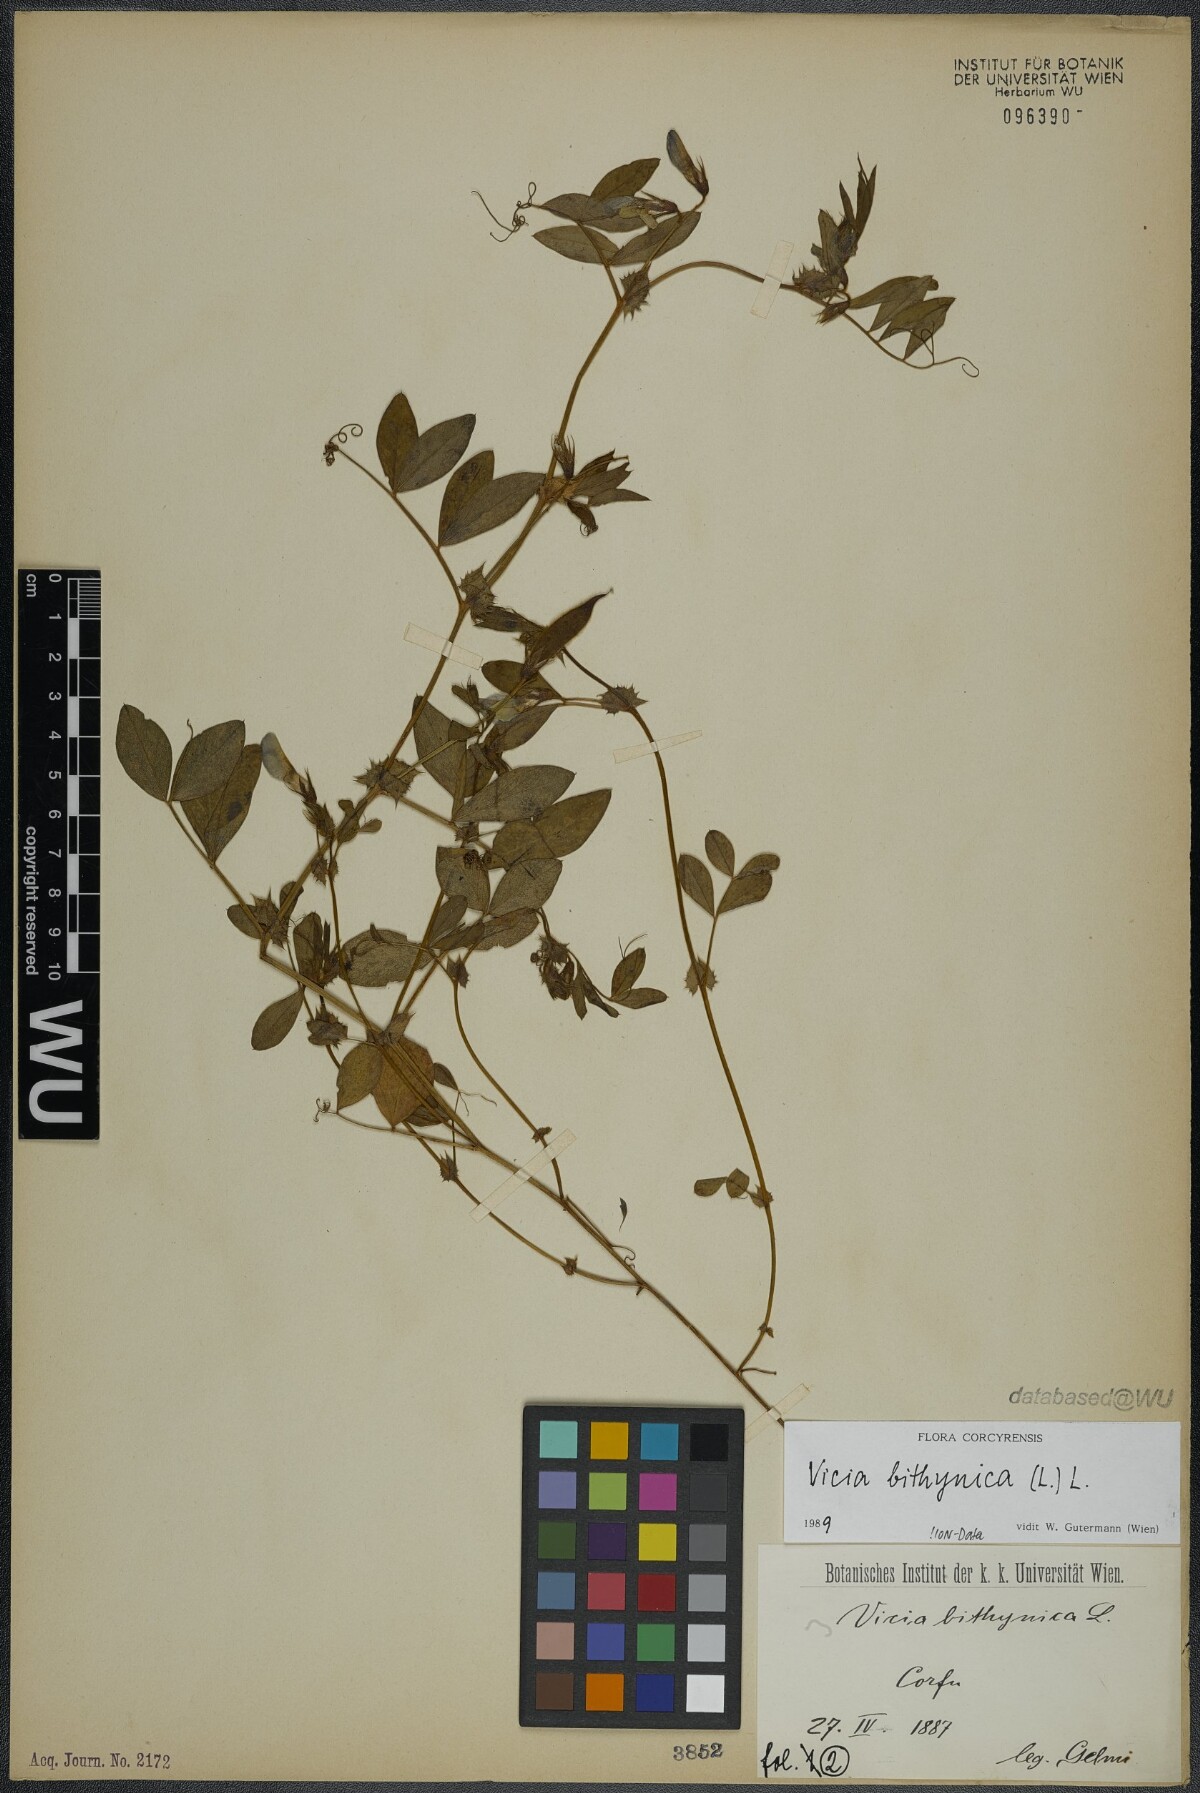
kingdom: Plantae
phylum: Tracheophyta
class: Magnoliopsida
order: Fabales
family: Fabaceae
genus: Vicia
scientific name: Vicia bithynica
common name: Bithynian vetch
